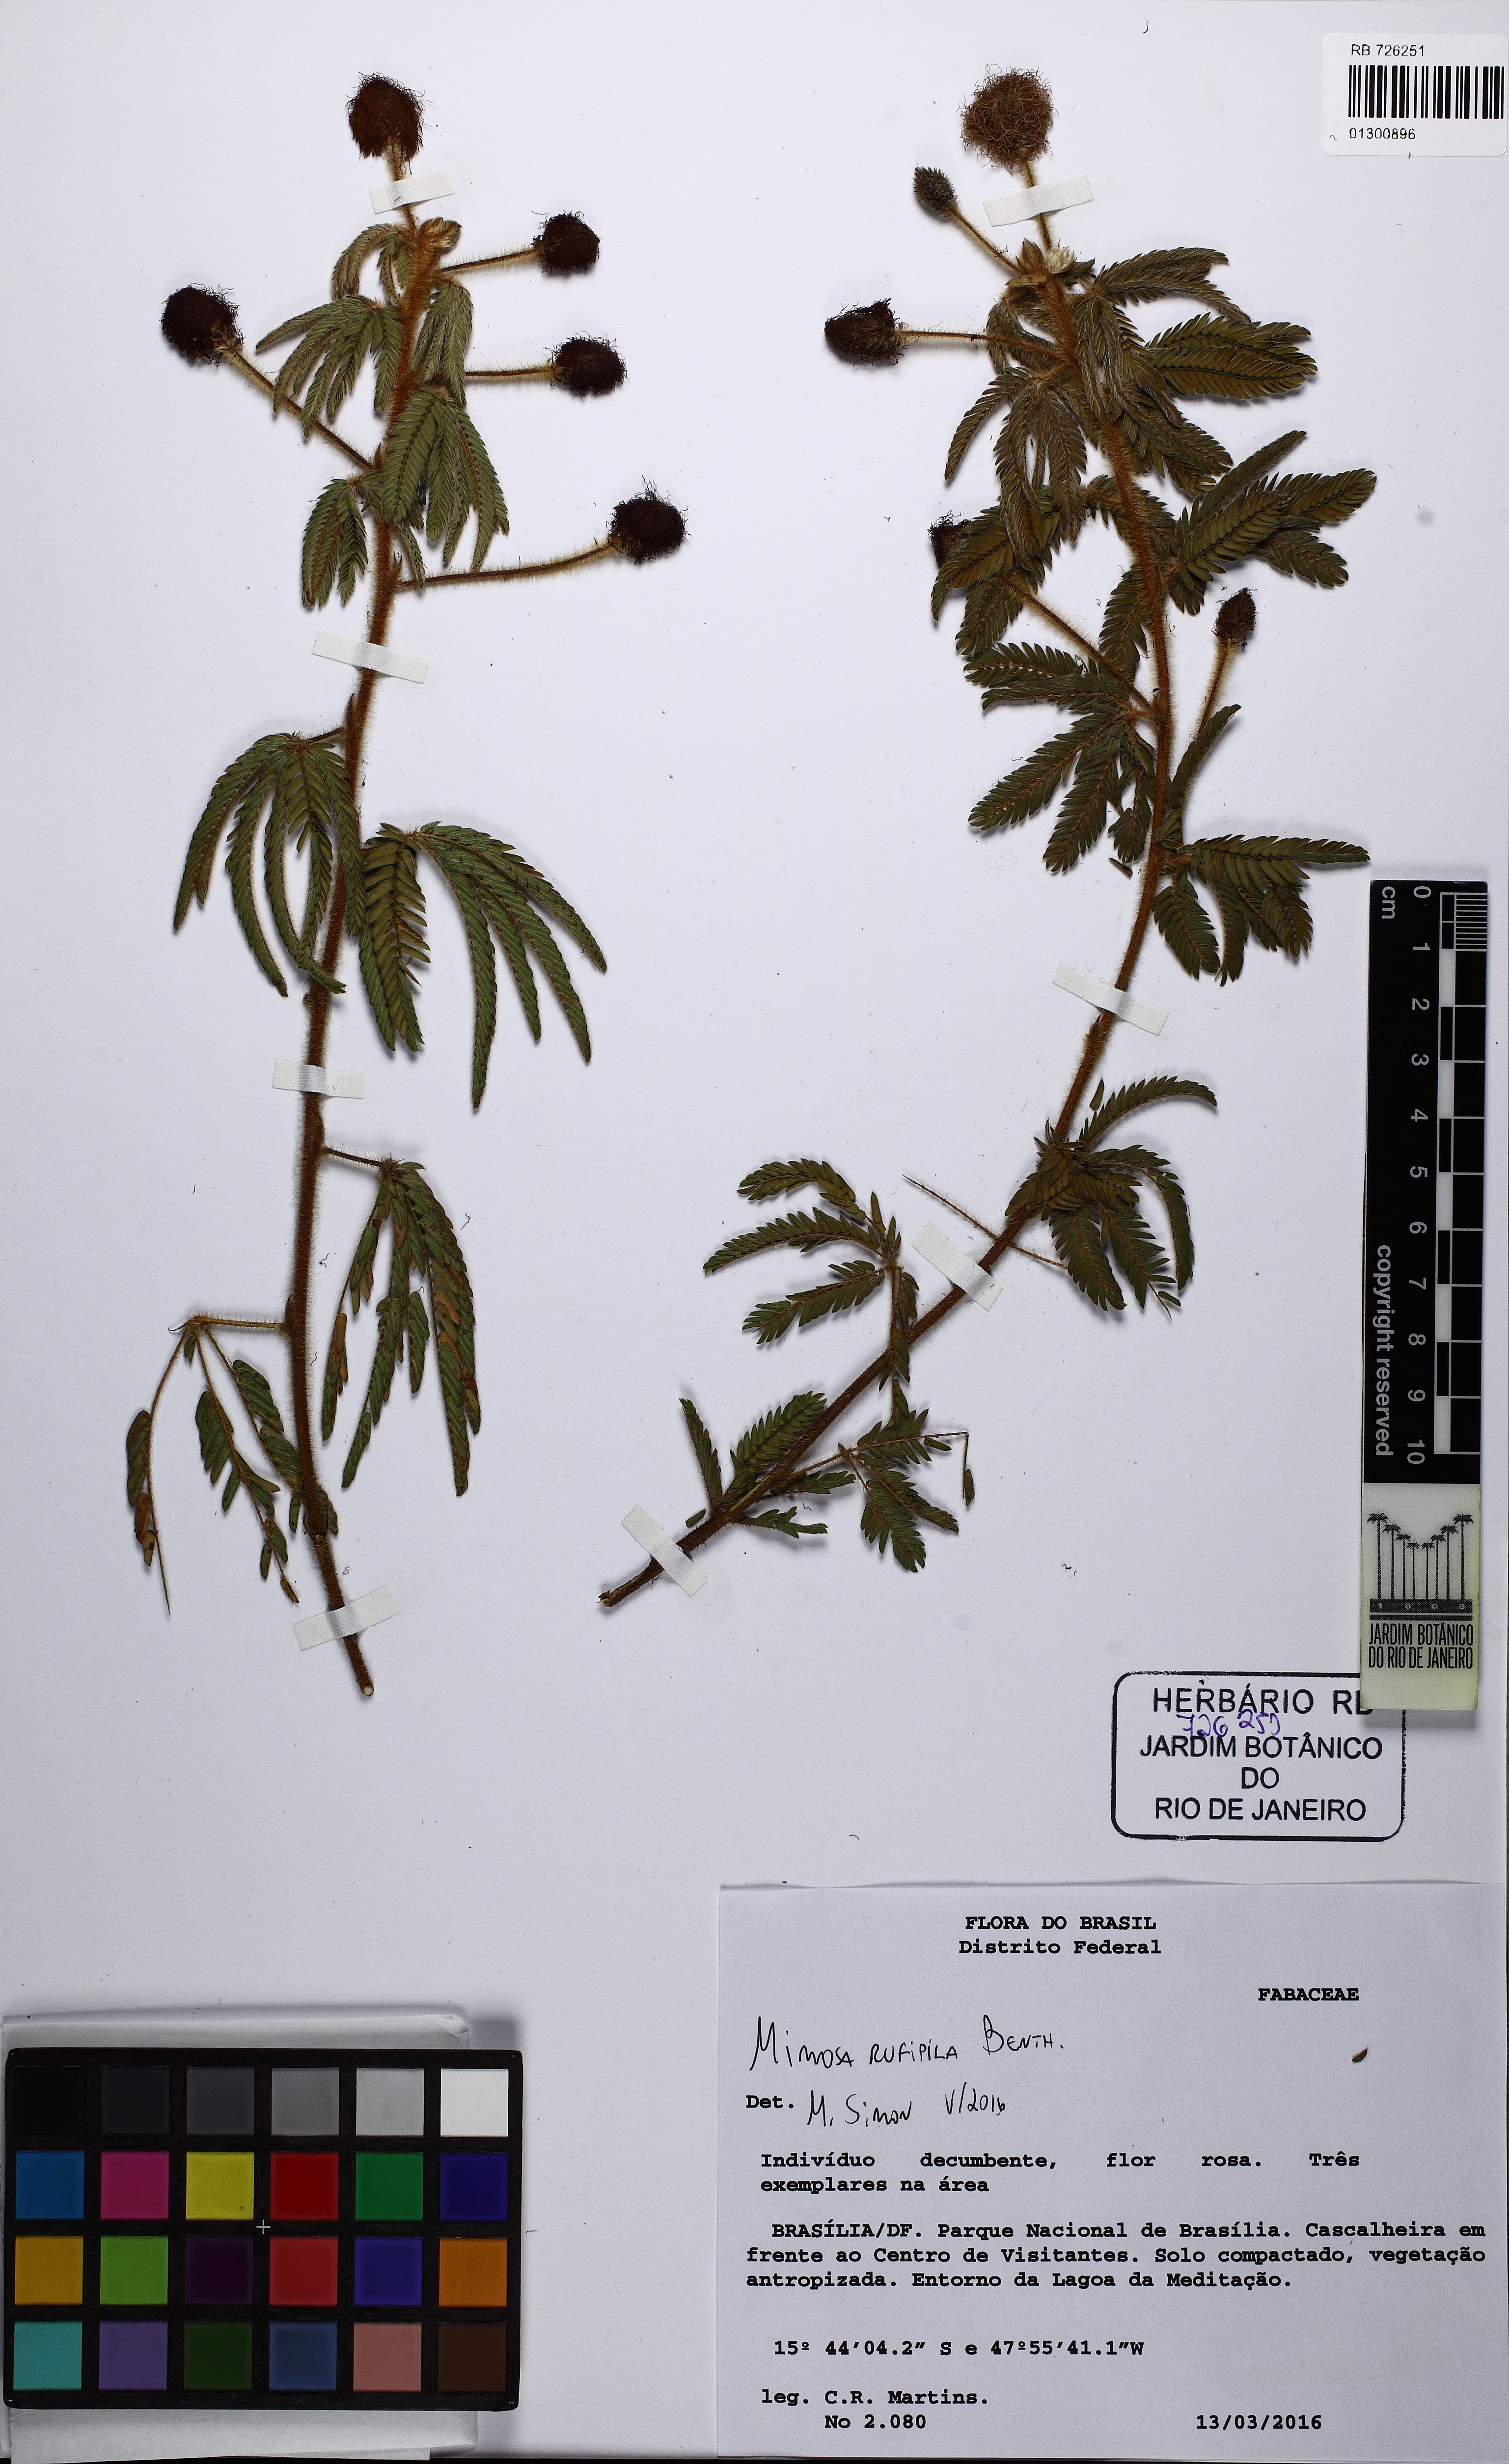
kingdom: Plantae
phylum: Tracheophyta
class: Magnoliopsida
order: Fabales
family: Fabaceae
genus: Mimosa
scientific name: Mimosa rufipila
